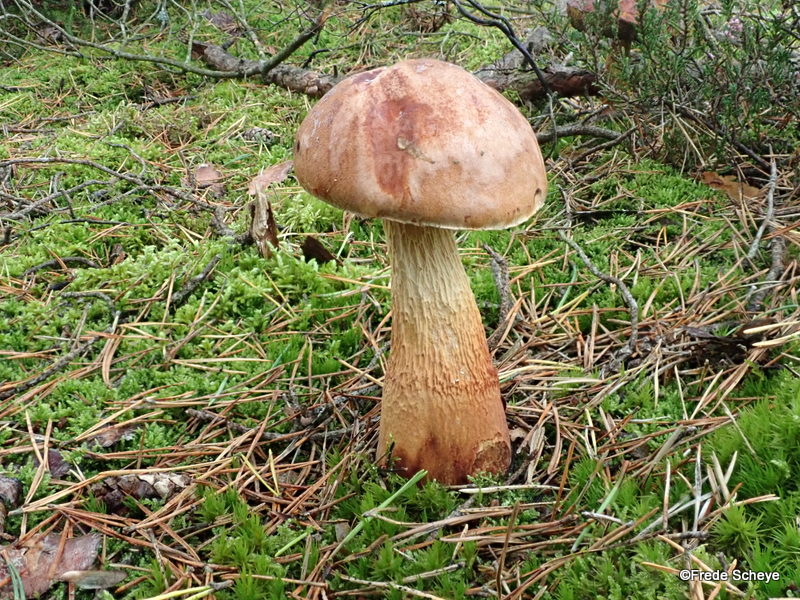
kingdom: Fungi
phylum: Basidiomycota
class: Agaricomycetes
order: Boletales
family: Boletaceae
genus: Aureoboletus
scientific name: Aureoboletus projectellus
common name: ribbestokket rørhat
